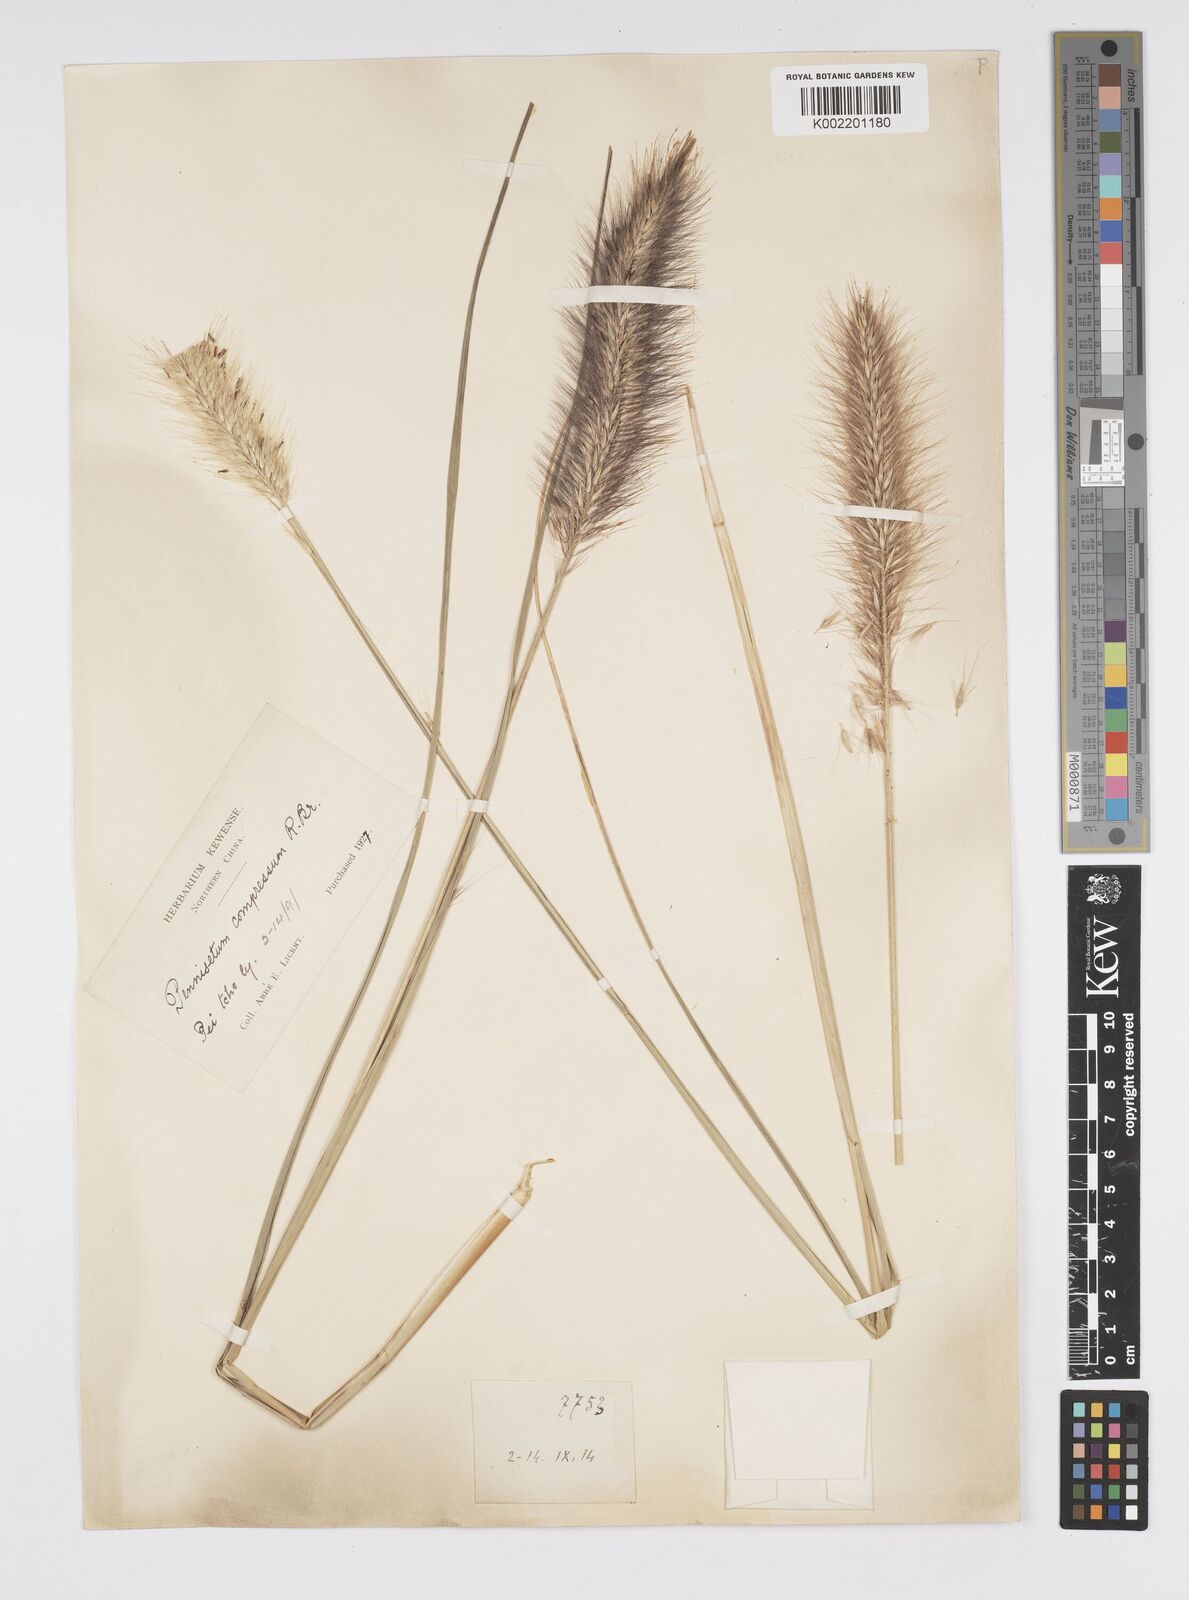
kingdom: Plantae
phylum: Tracheophyta
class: Liliopsida
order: Poales
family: Poaceae
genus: Cenchrus
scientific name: Cenchrus alopecuroides
